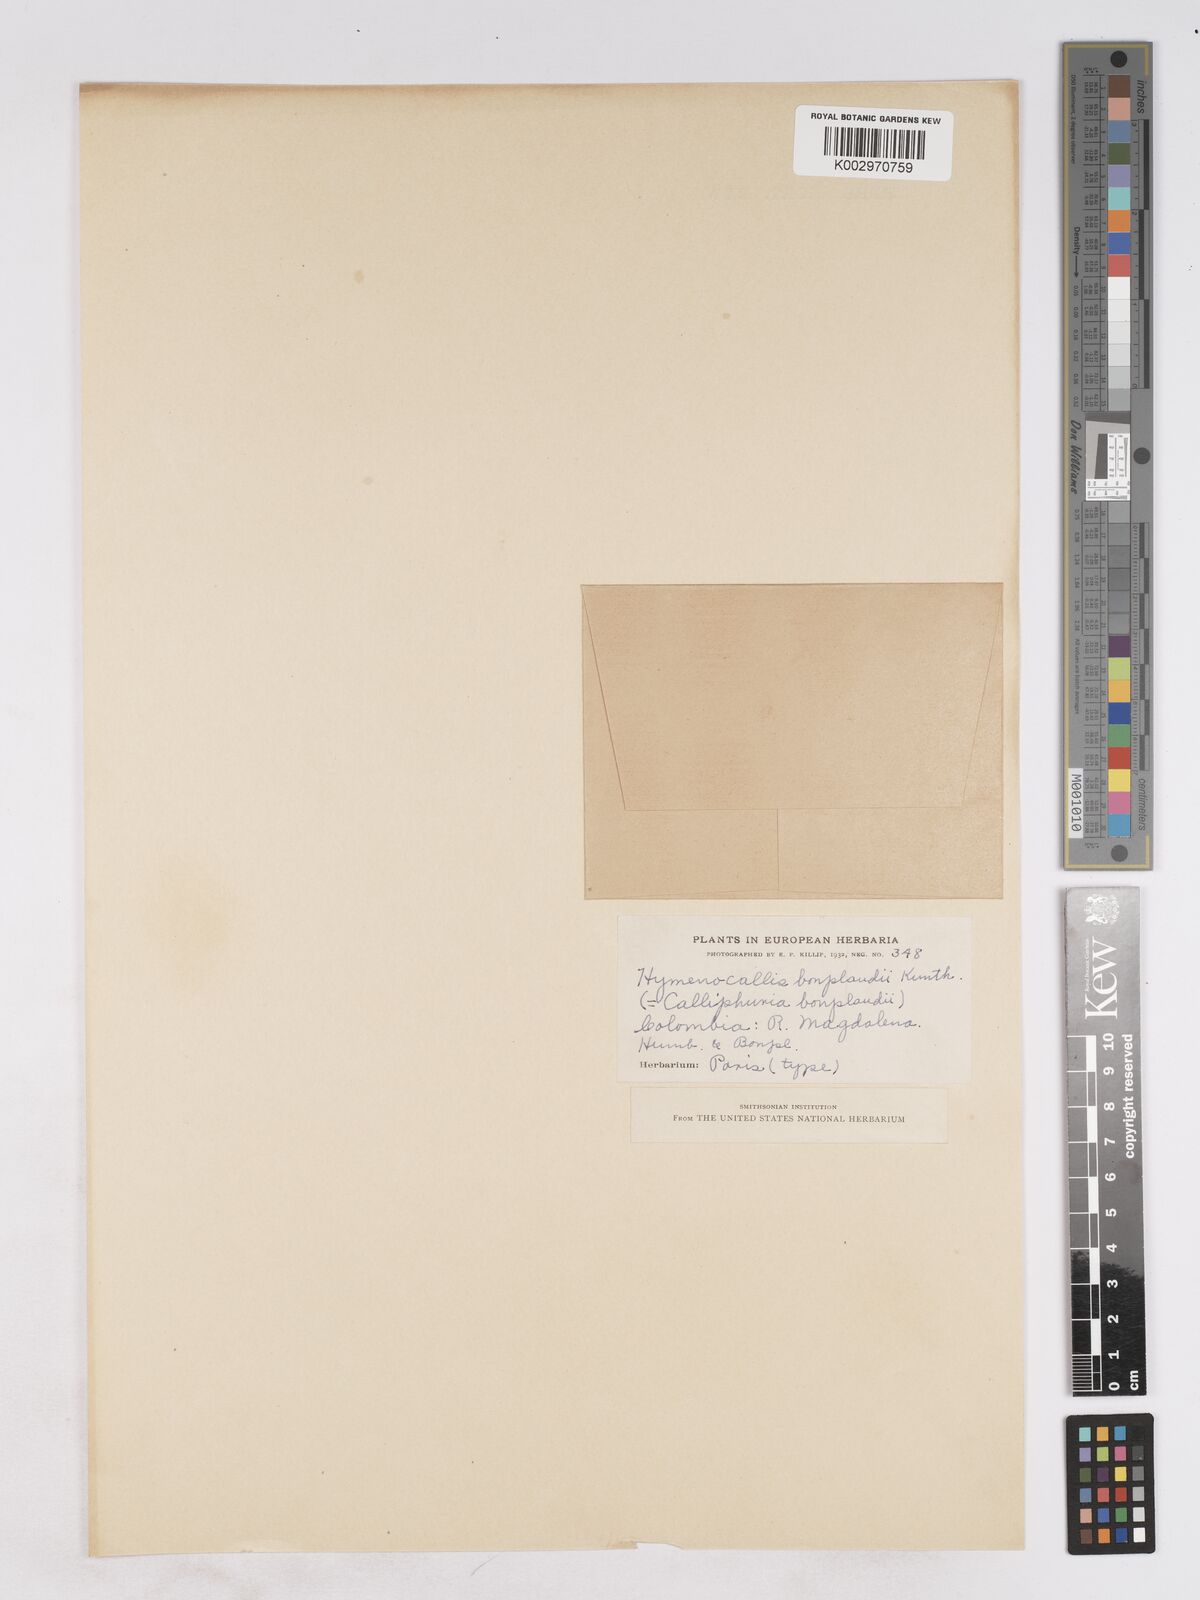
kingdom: Plantae
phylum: Tracheophyta
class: Liliopsida
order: Asparagales
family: Amaryllidaceae
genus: Urceolina
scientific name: Urceolina bonplandii
